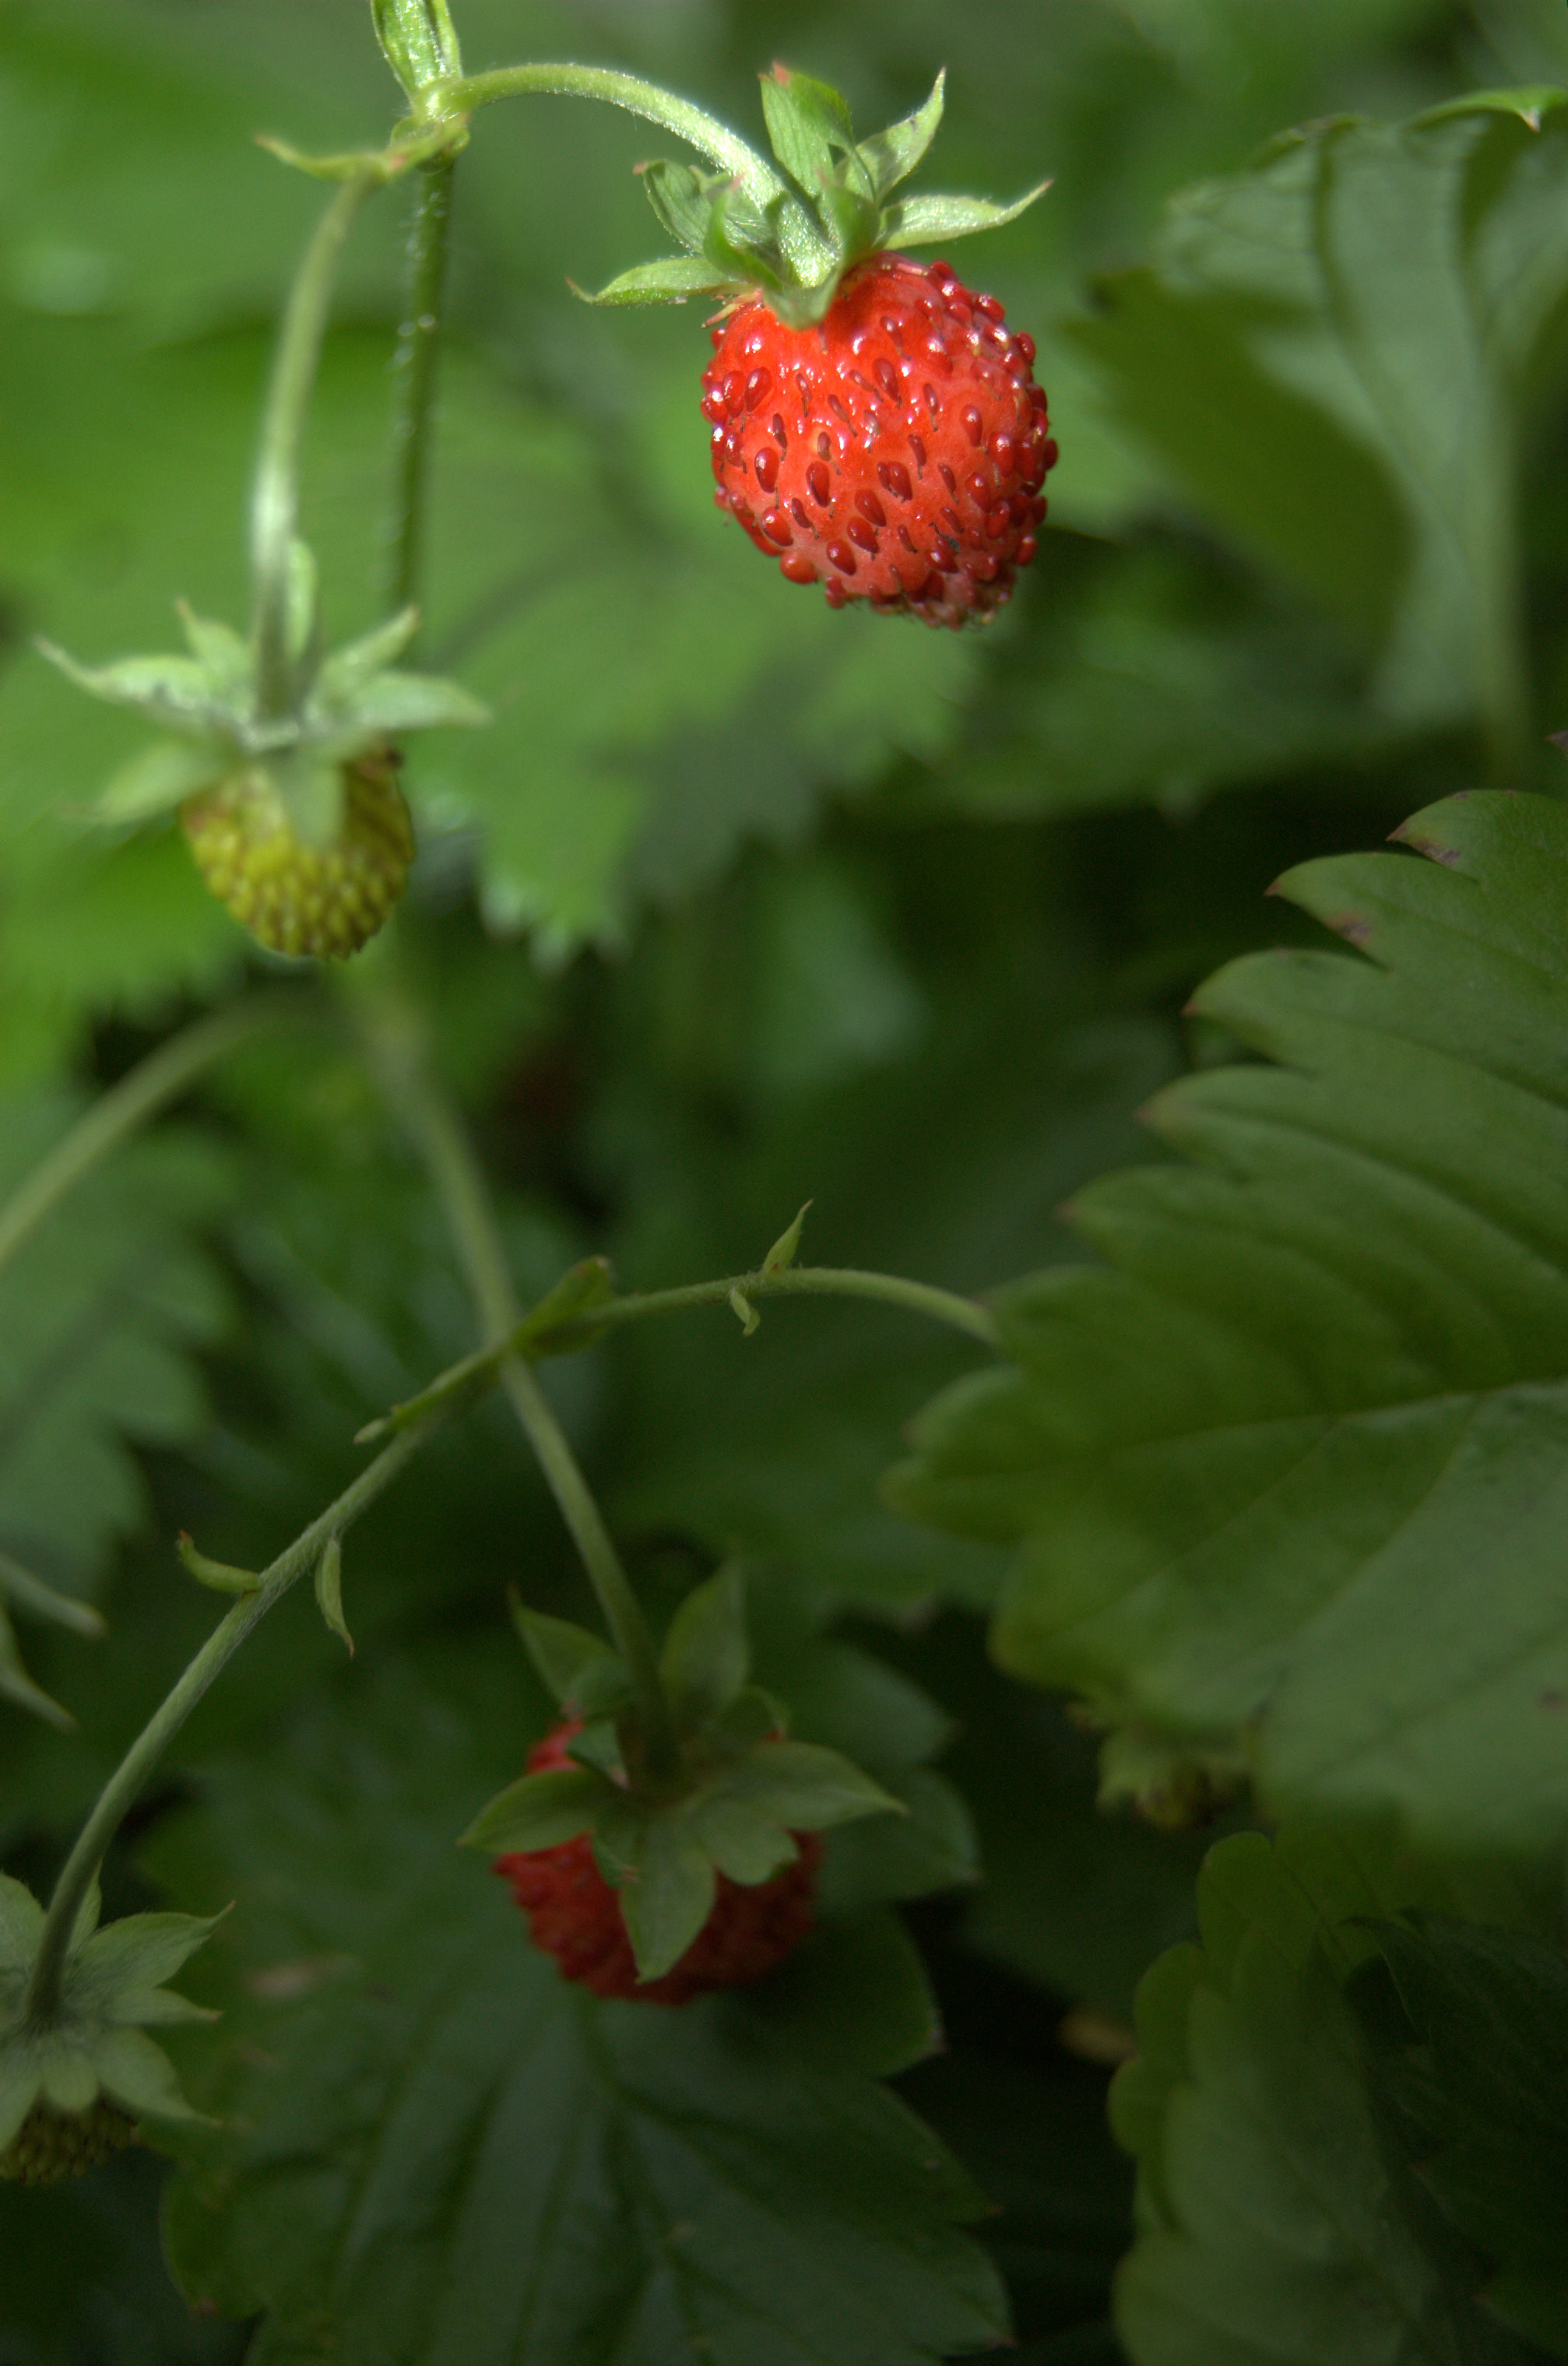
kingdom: Plantae
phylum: Tracheophyta
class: Magnoliopsida
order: Rosales
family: Rosaceae
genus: Fragaria
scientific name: Fragaria vesca
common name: Wild strawberry
